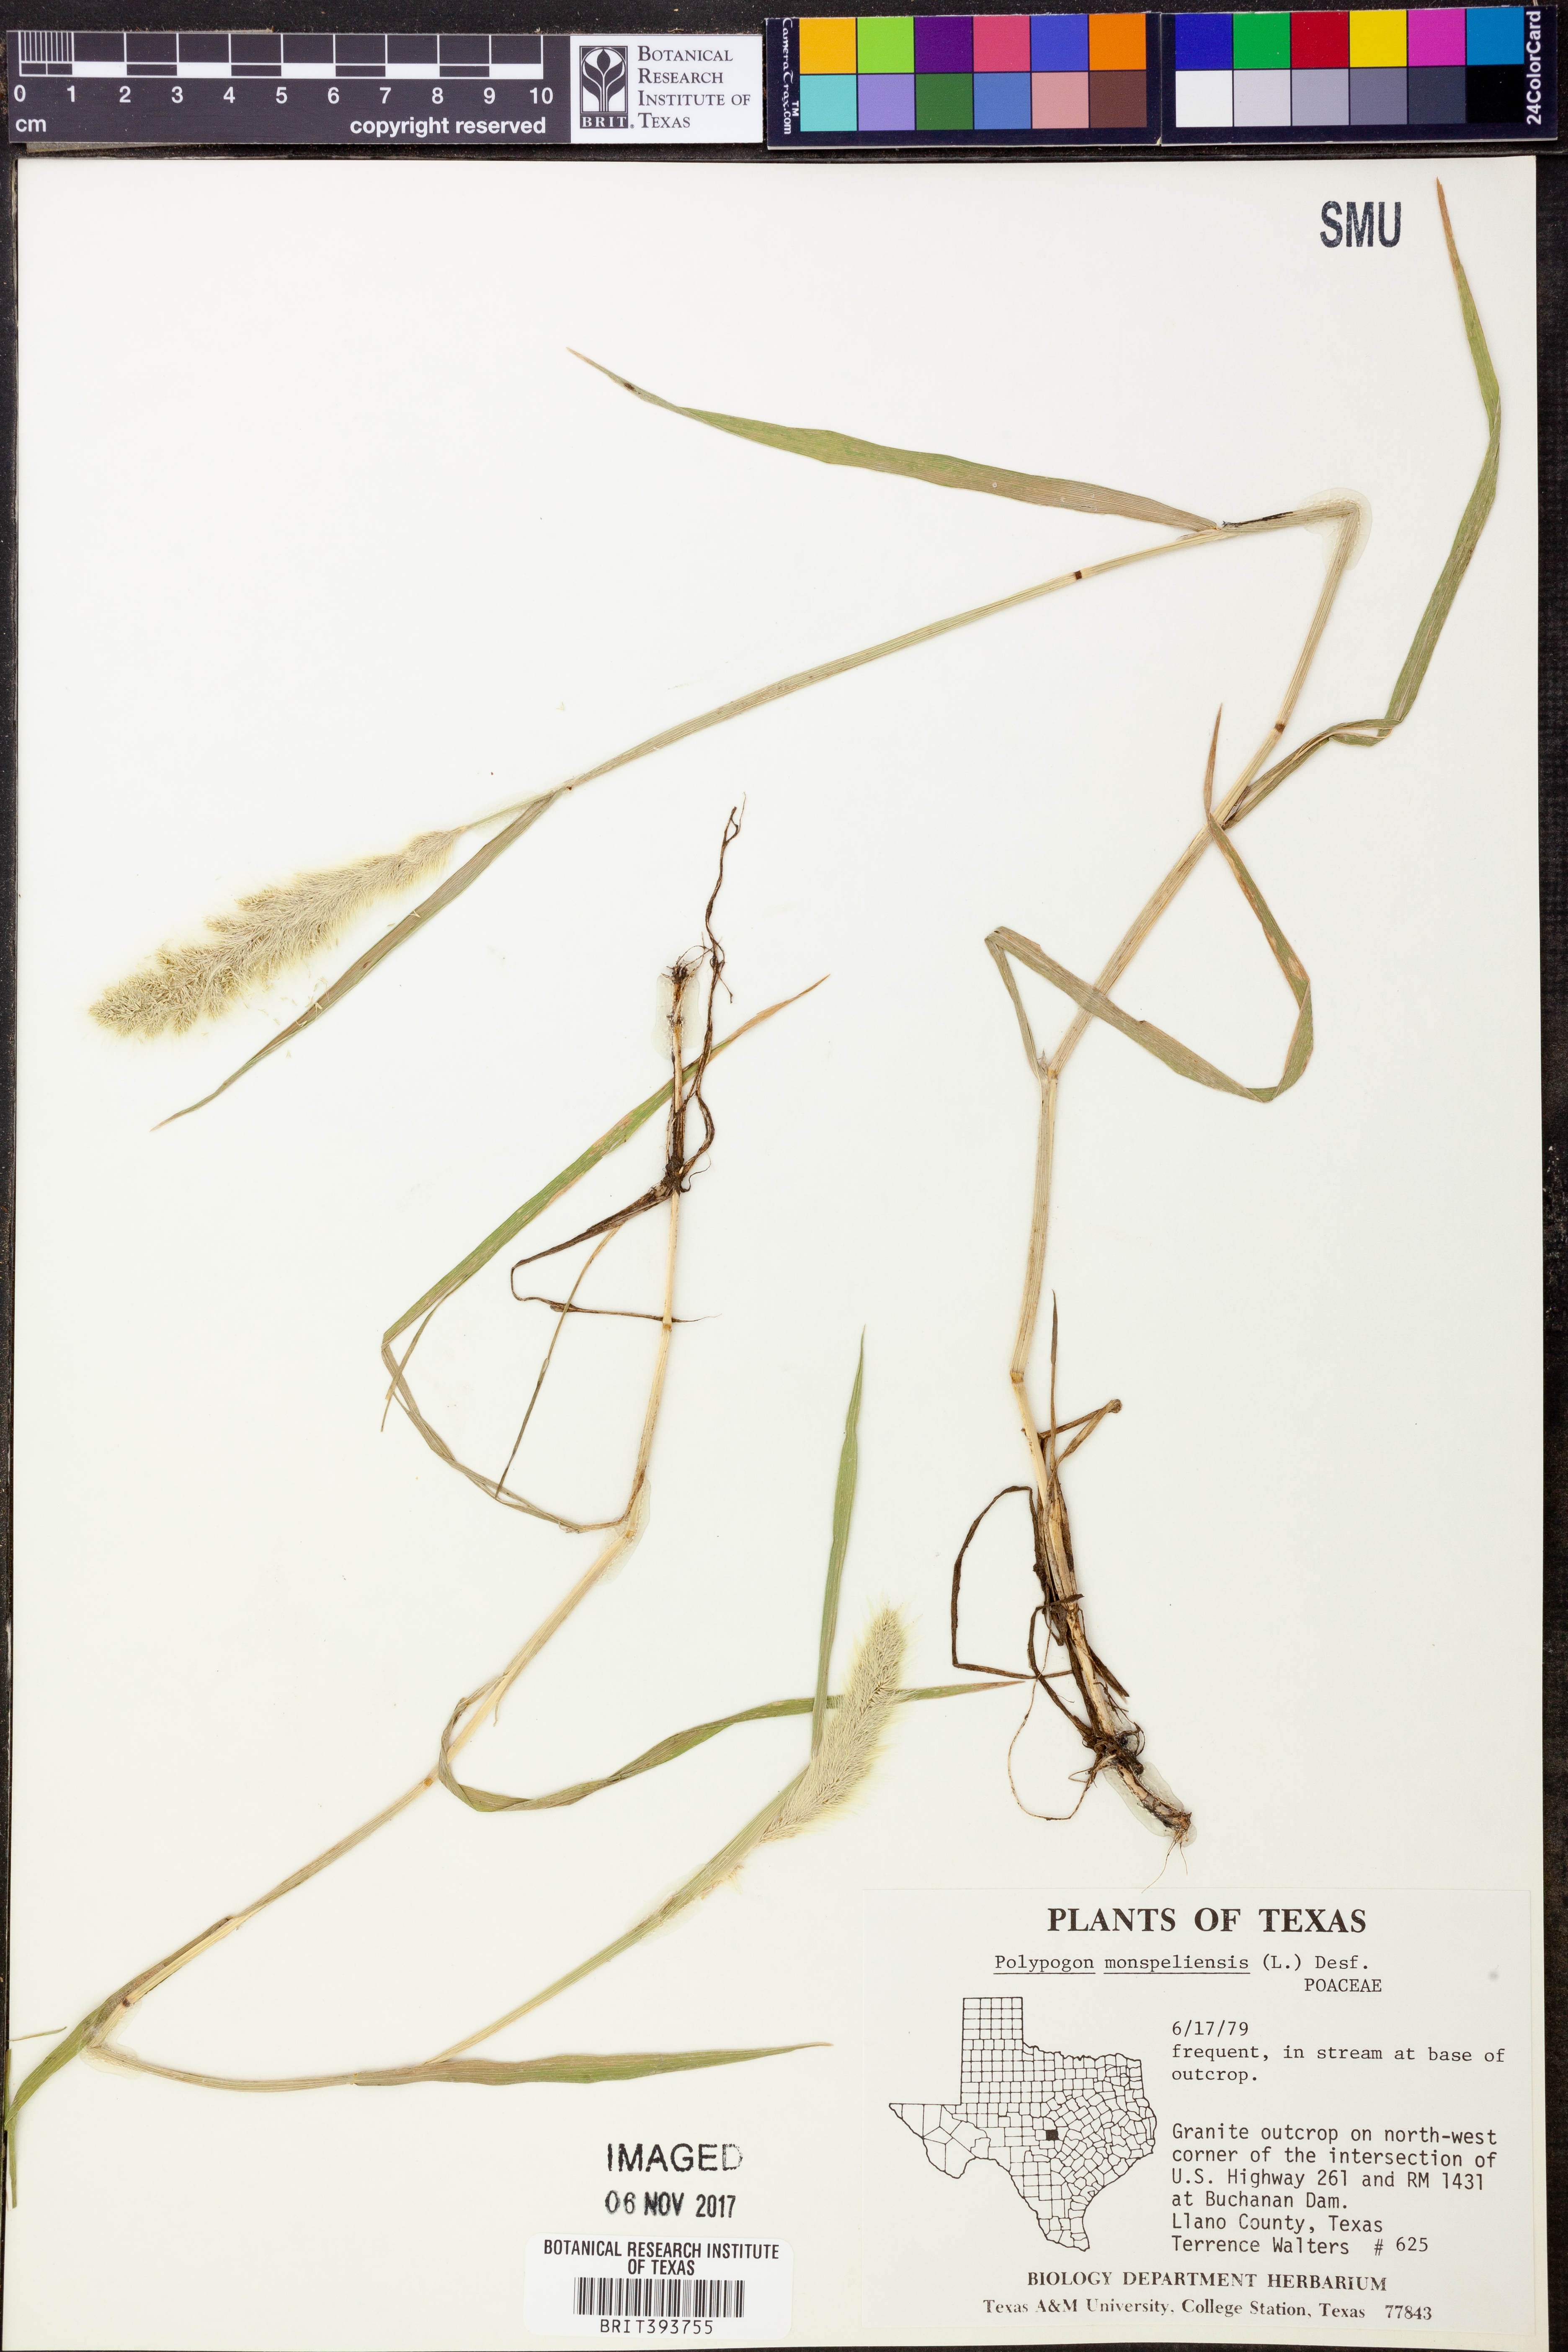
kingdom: Plantae
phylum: Tracheophyta
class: Liliopsida
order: Poales
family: Poaceae
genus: Polypogon
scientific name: Polypogon monspeliensis
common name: Annual rabbitsfoot grass
